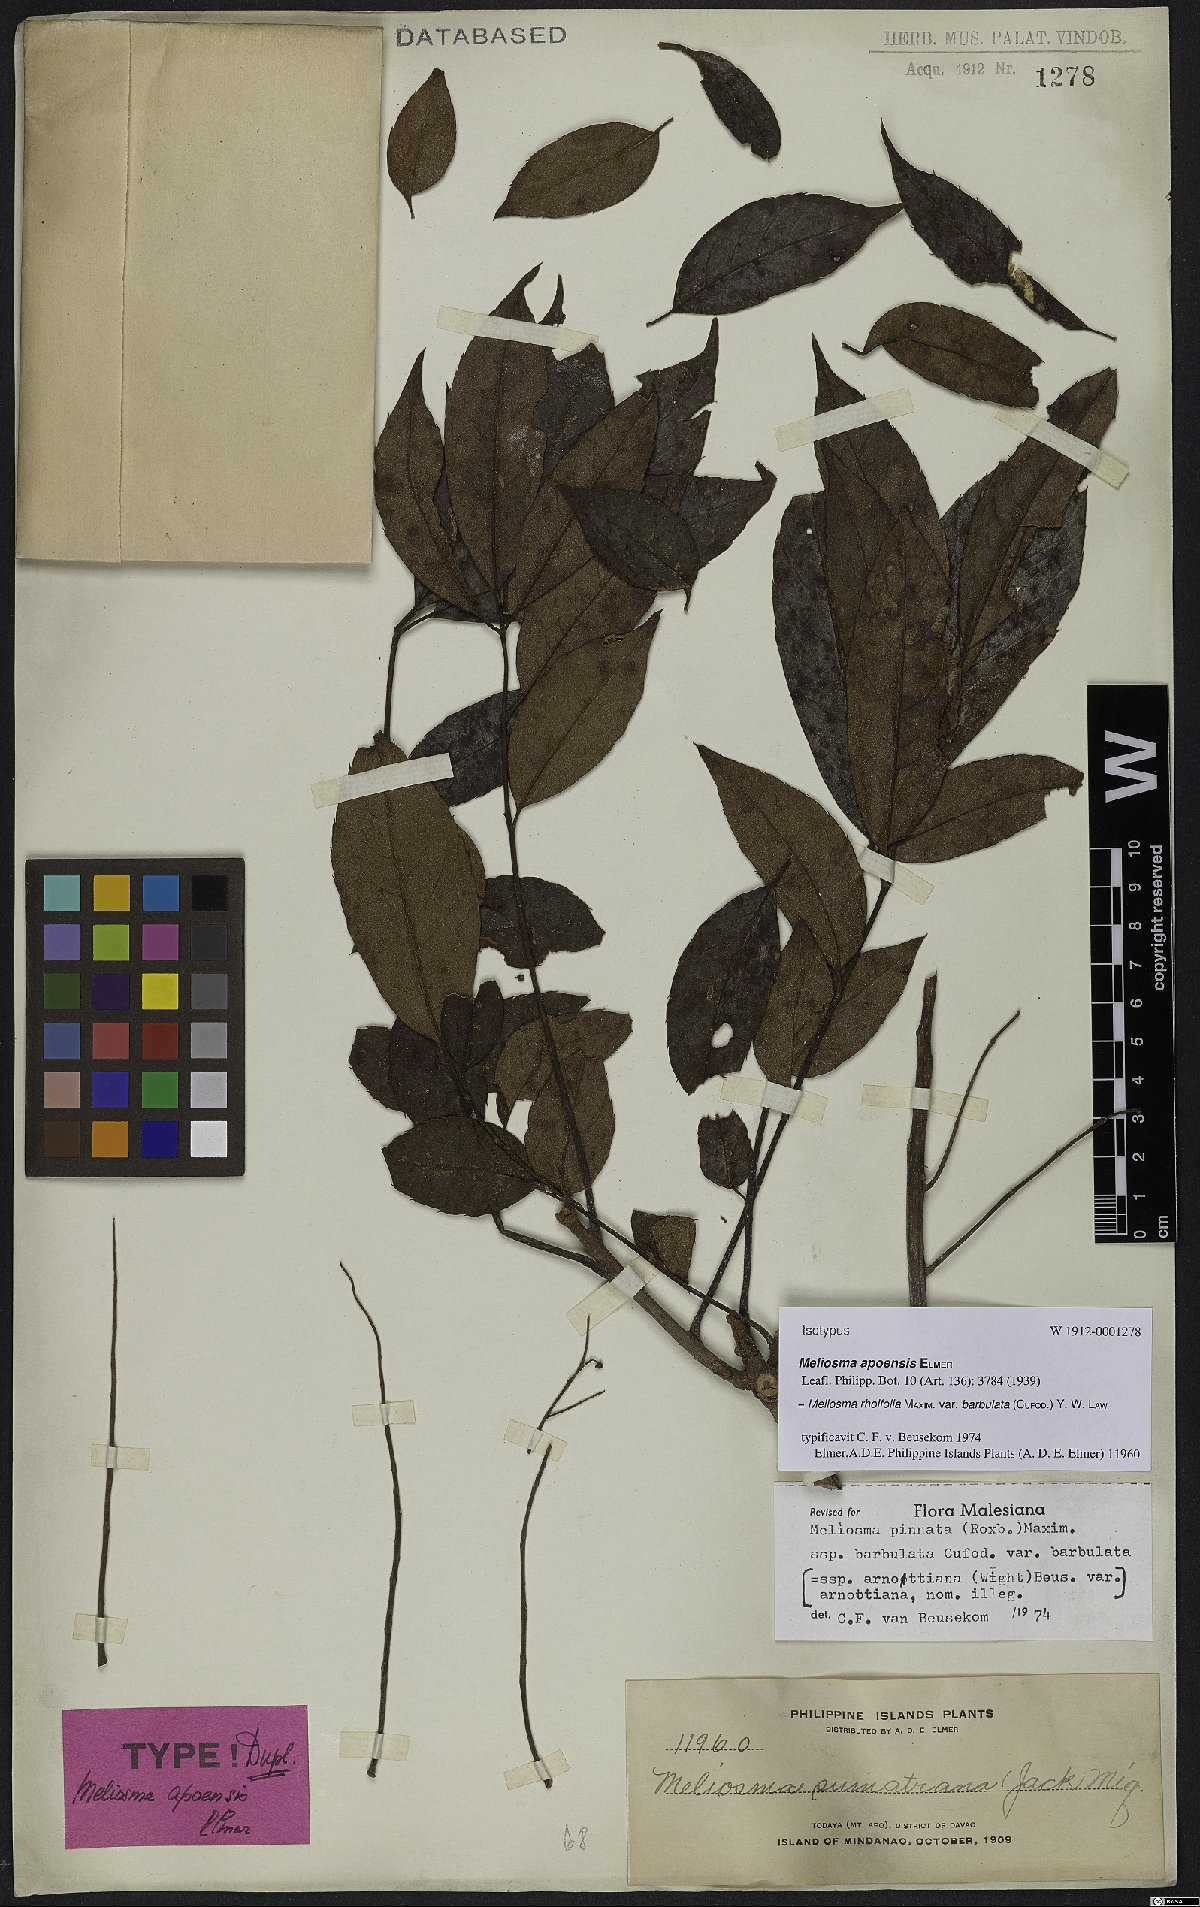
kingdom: Plantae
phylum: Tracheophyta
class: Magnoliopsida
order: Proteales
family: Sabiaceae
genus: Meliosma
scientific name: Meliosma rhoifolia
